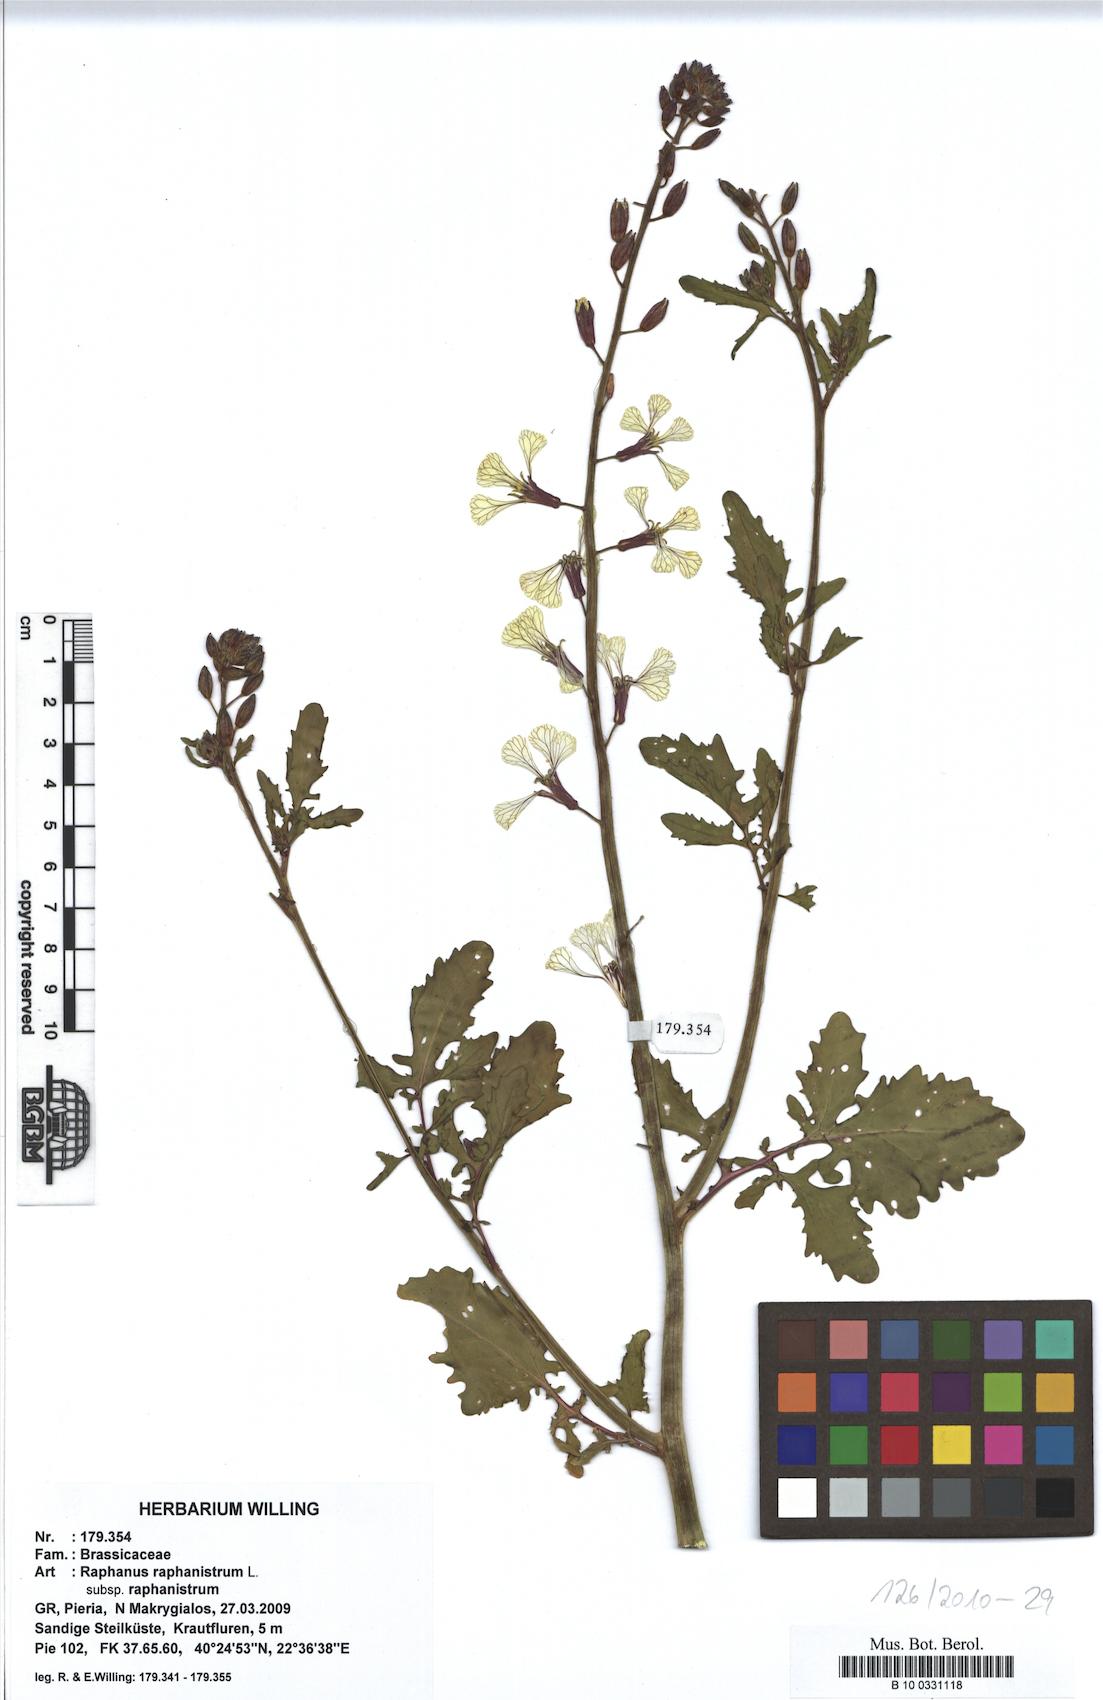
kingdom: Plantae
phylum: Tracheophyta
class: Magnoliopsida
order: Brassicales
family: Brassicaceae
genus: Raphanus
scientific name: Raphanus raphanistrum
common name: Wild radish
